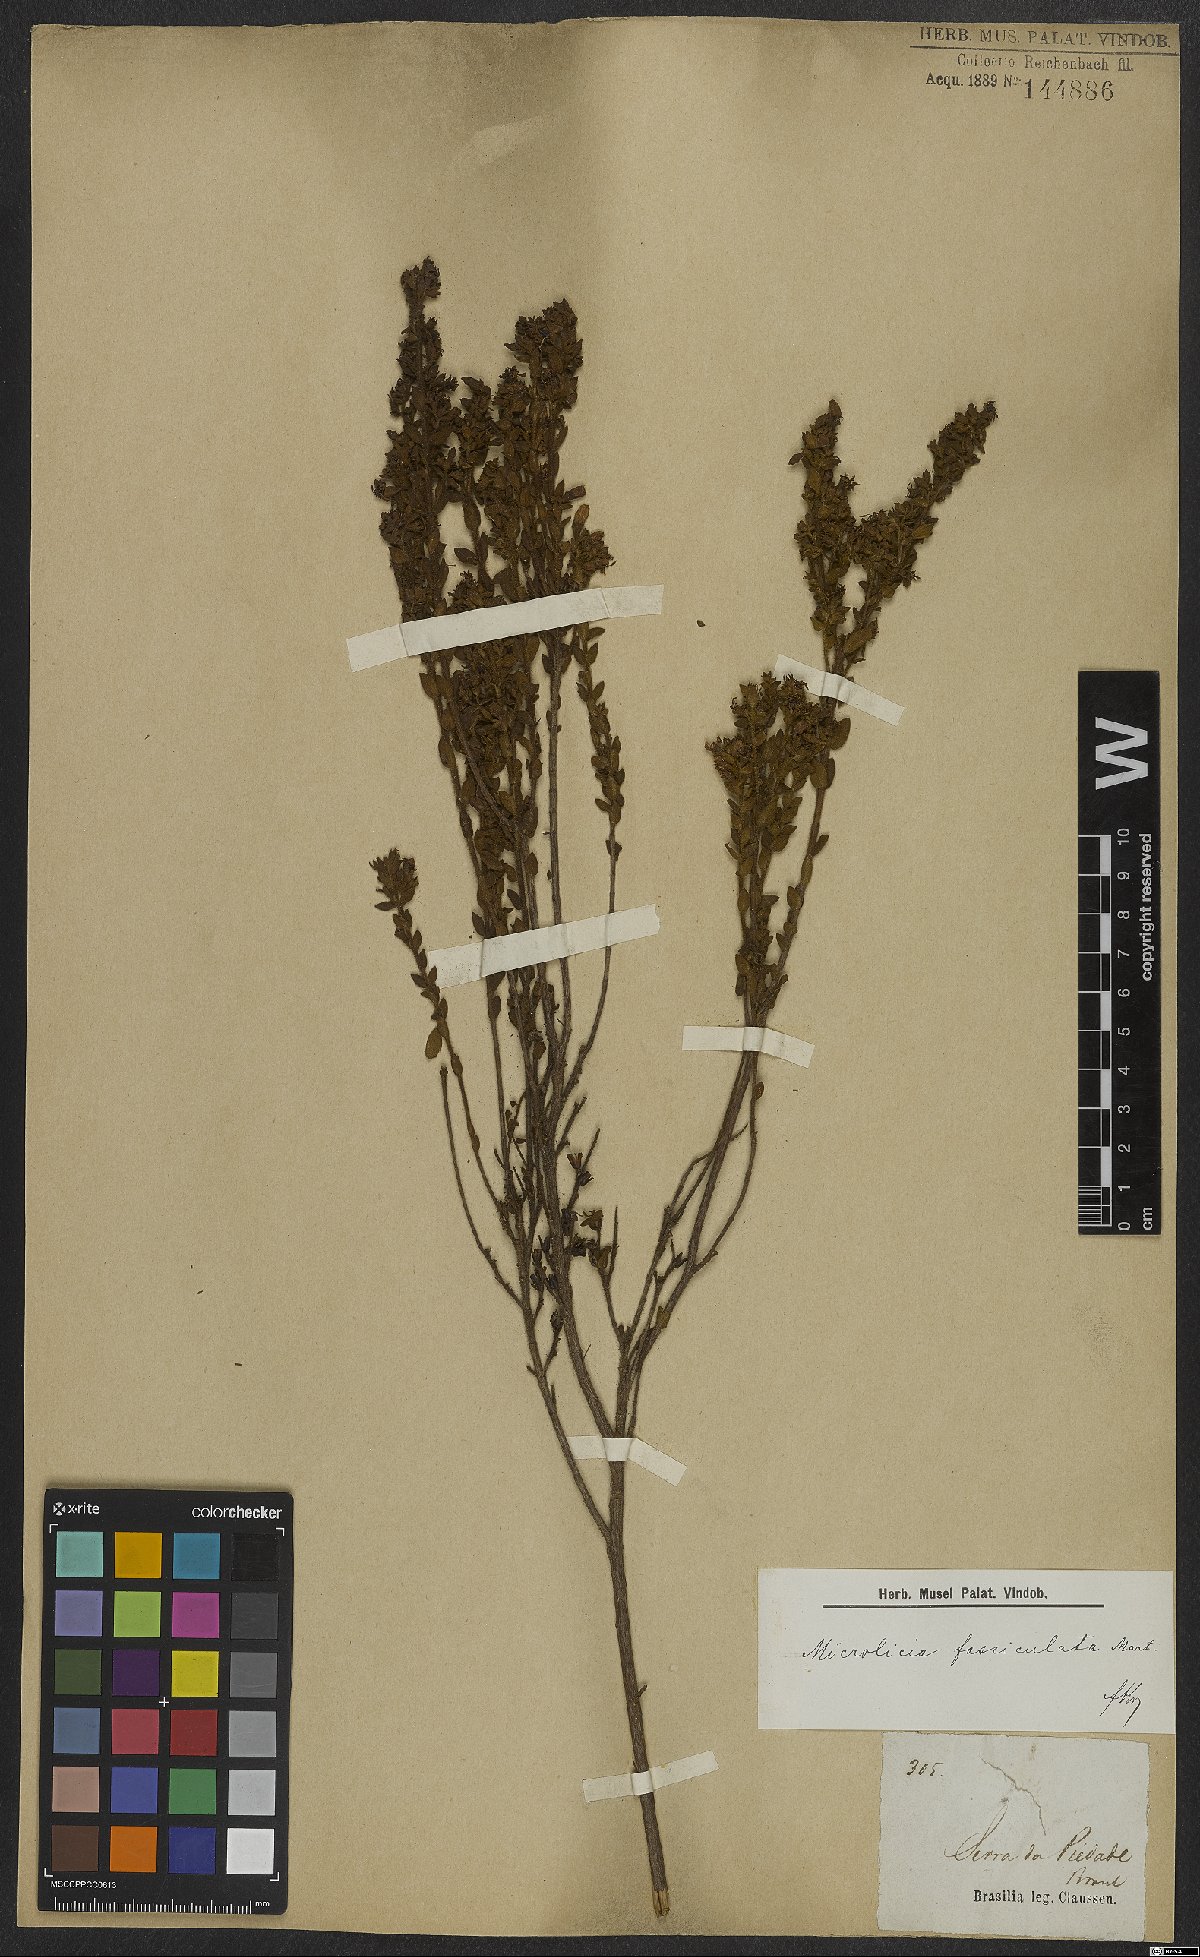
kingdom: Plantae
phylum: Tracheophyta
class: Magnoliopsida
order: Myrtales
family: Melastomataceae
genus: Microlicia
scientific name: Microlicia fasciculata
